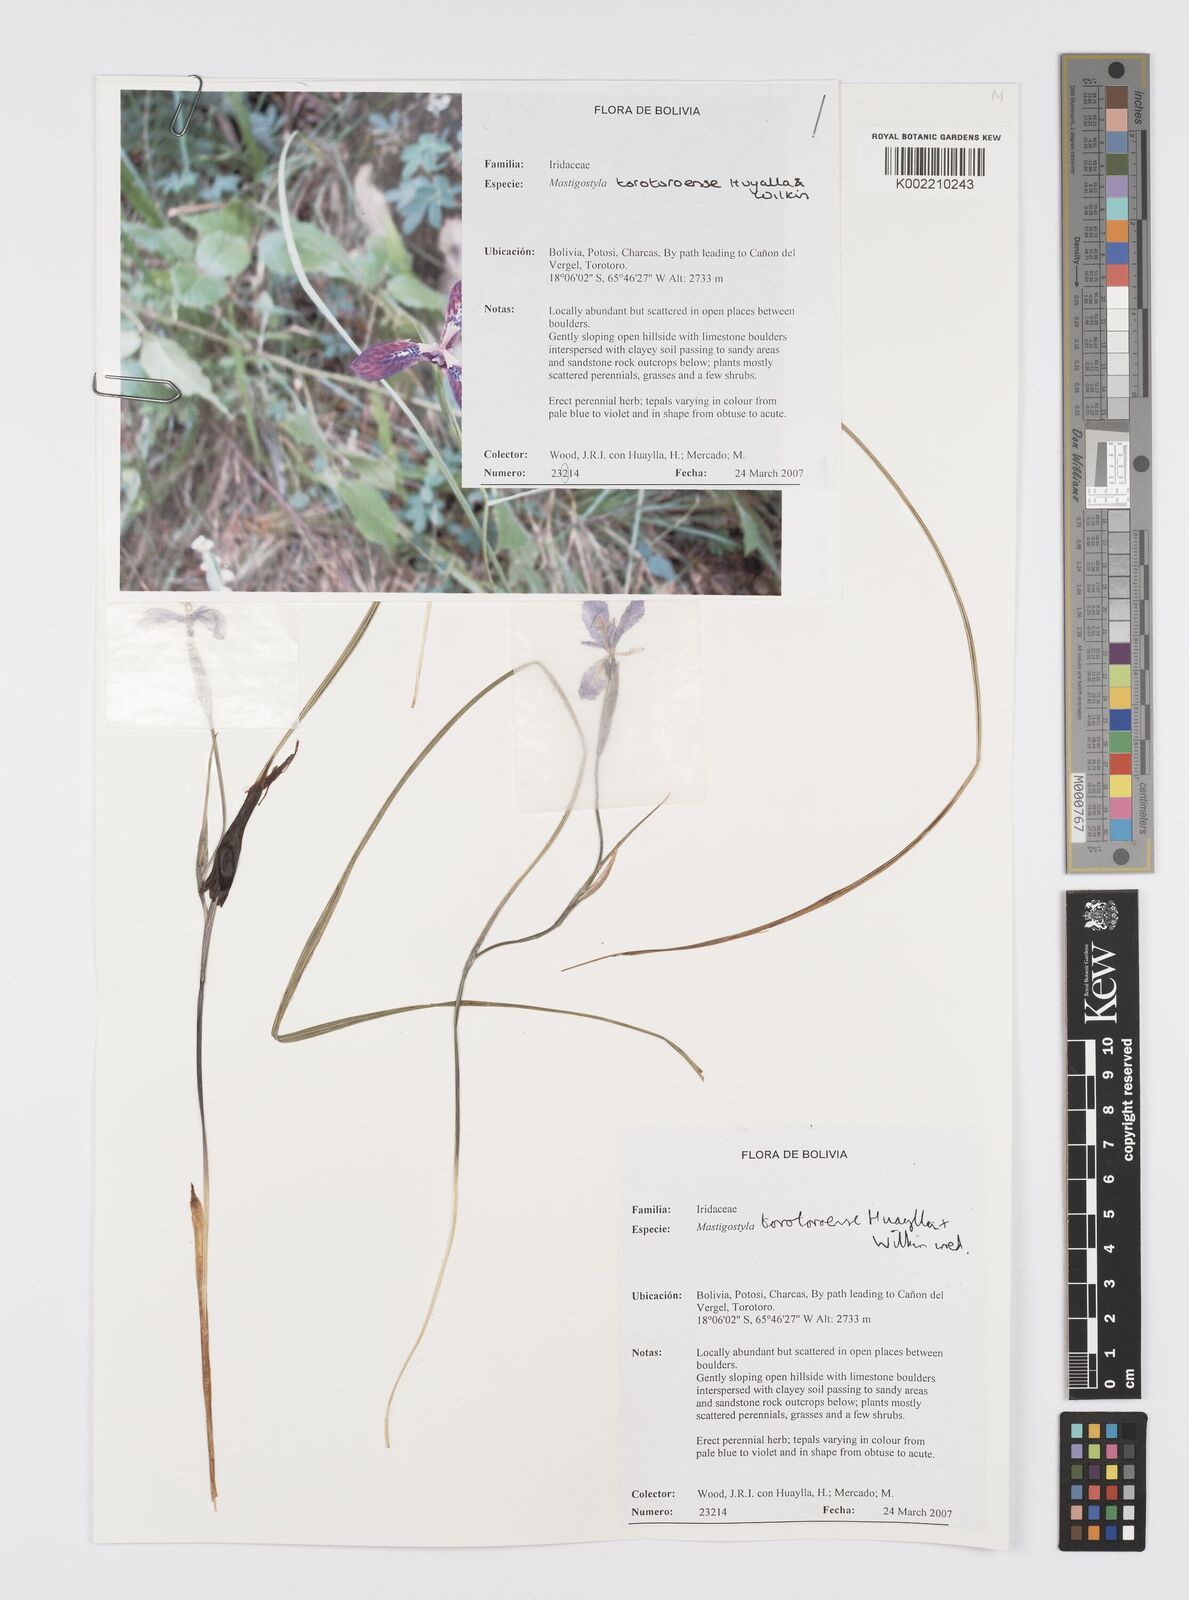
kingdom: Plantae
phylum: Tracheophyta
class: Liliopsida
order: Asparagales
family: Iridaceae
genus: Mastigostyla
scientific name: Mastigostyla torotoroensis
